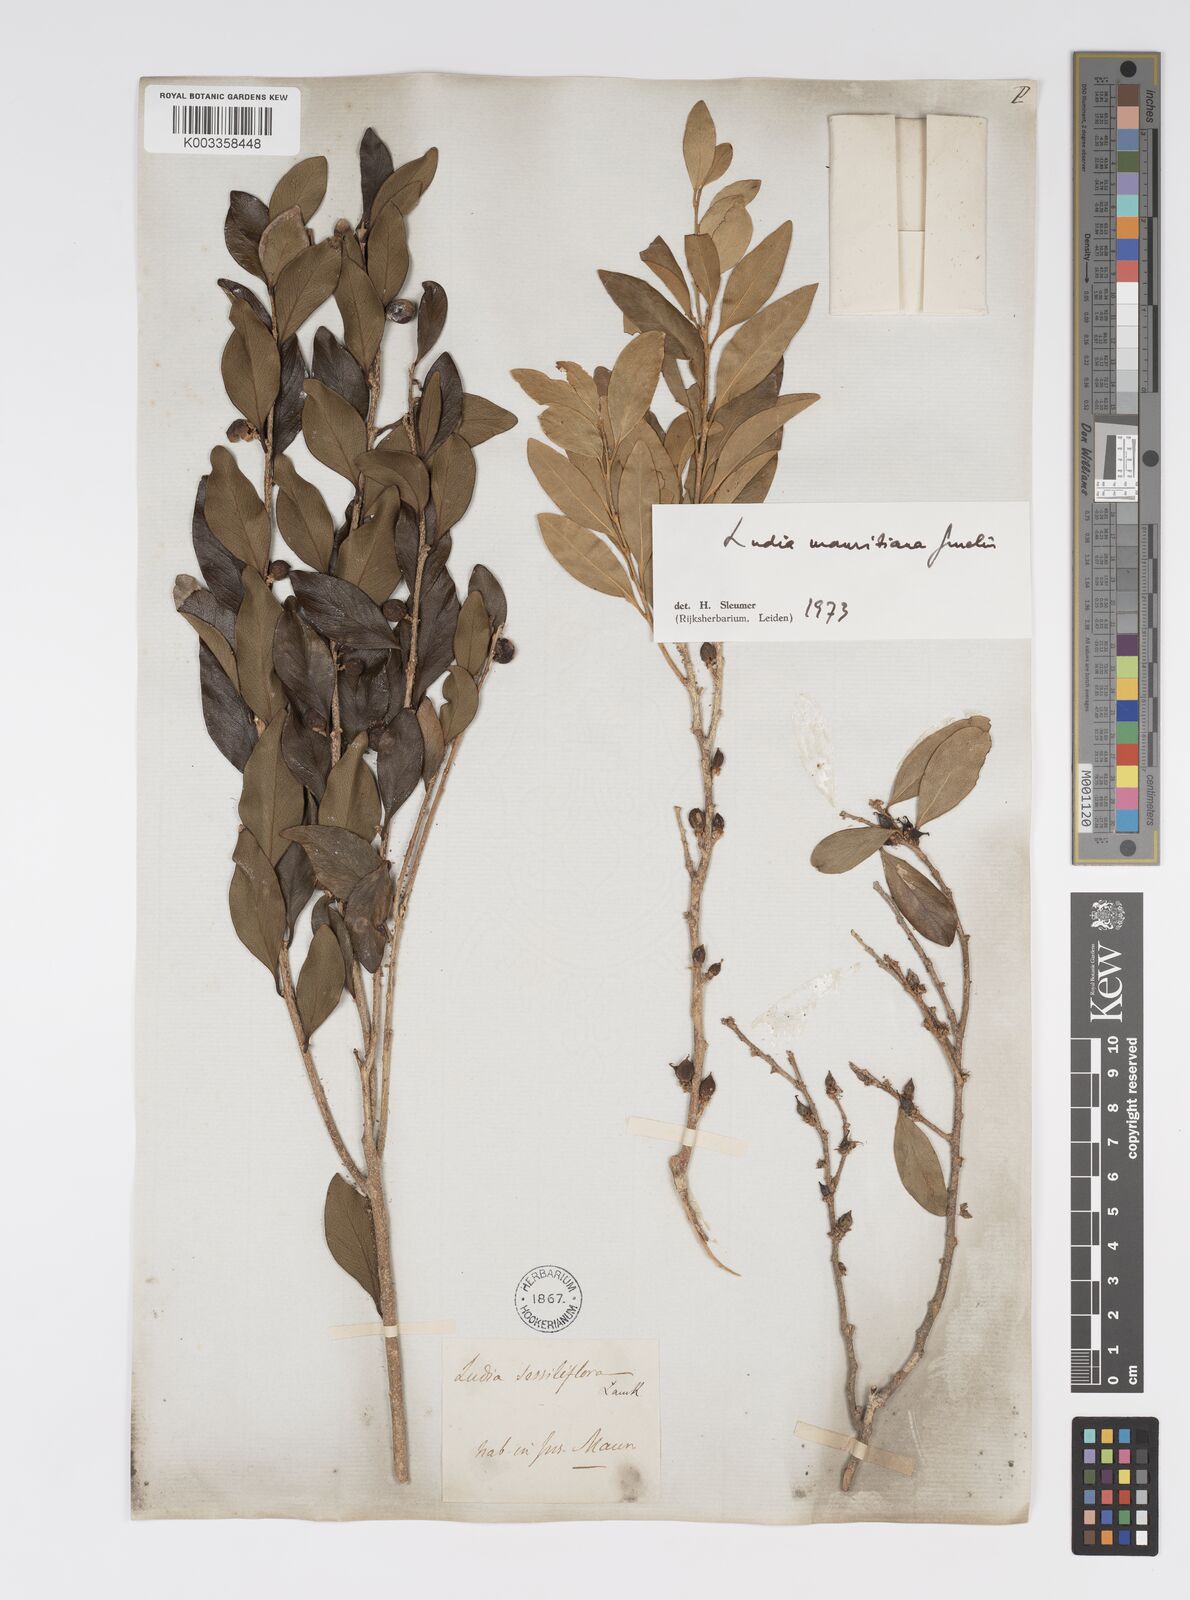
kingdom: Plantae
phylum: Tracheophyta
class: Magnoliopsida
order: Malpighiales
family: Salicaceae
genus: Ludia
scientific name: Ludia mauritiana
